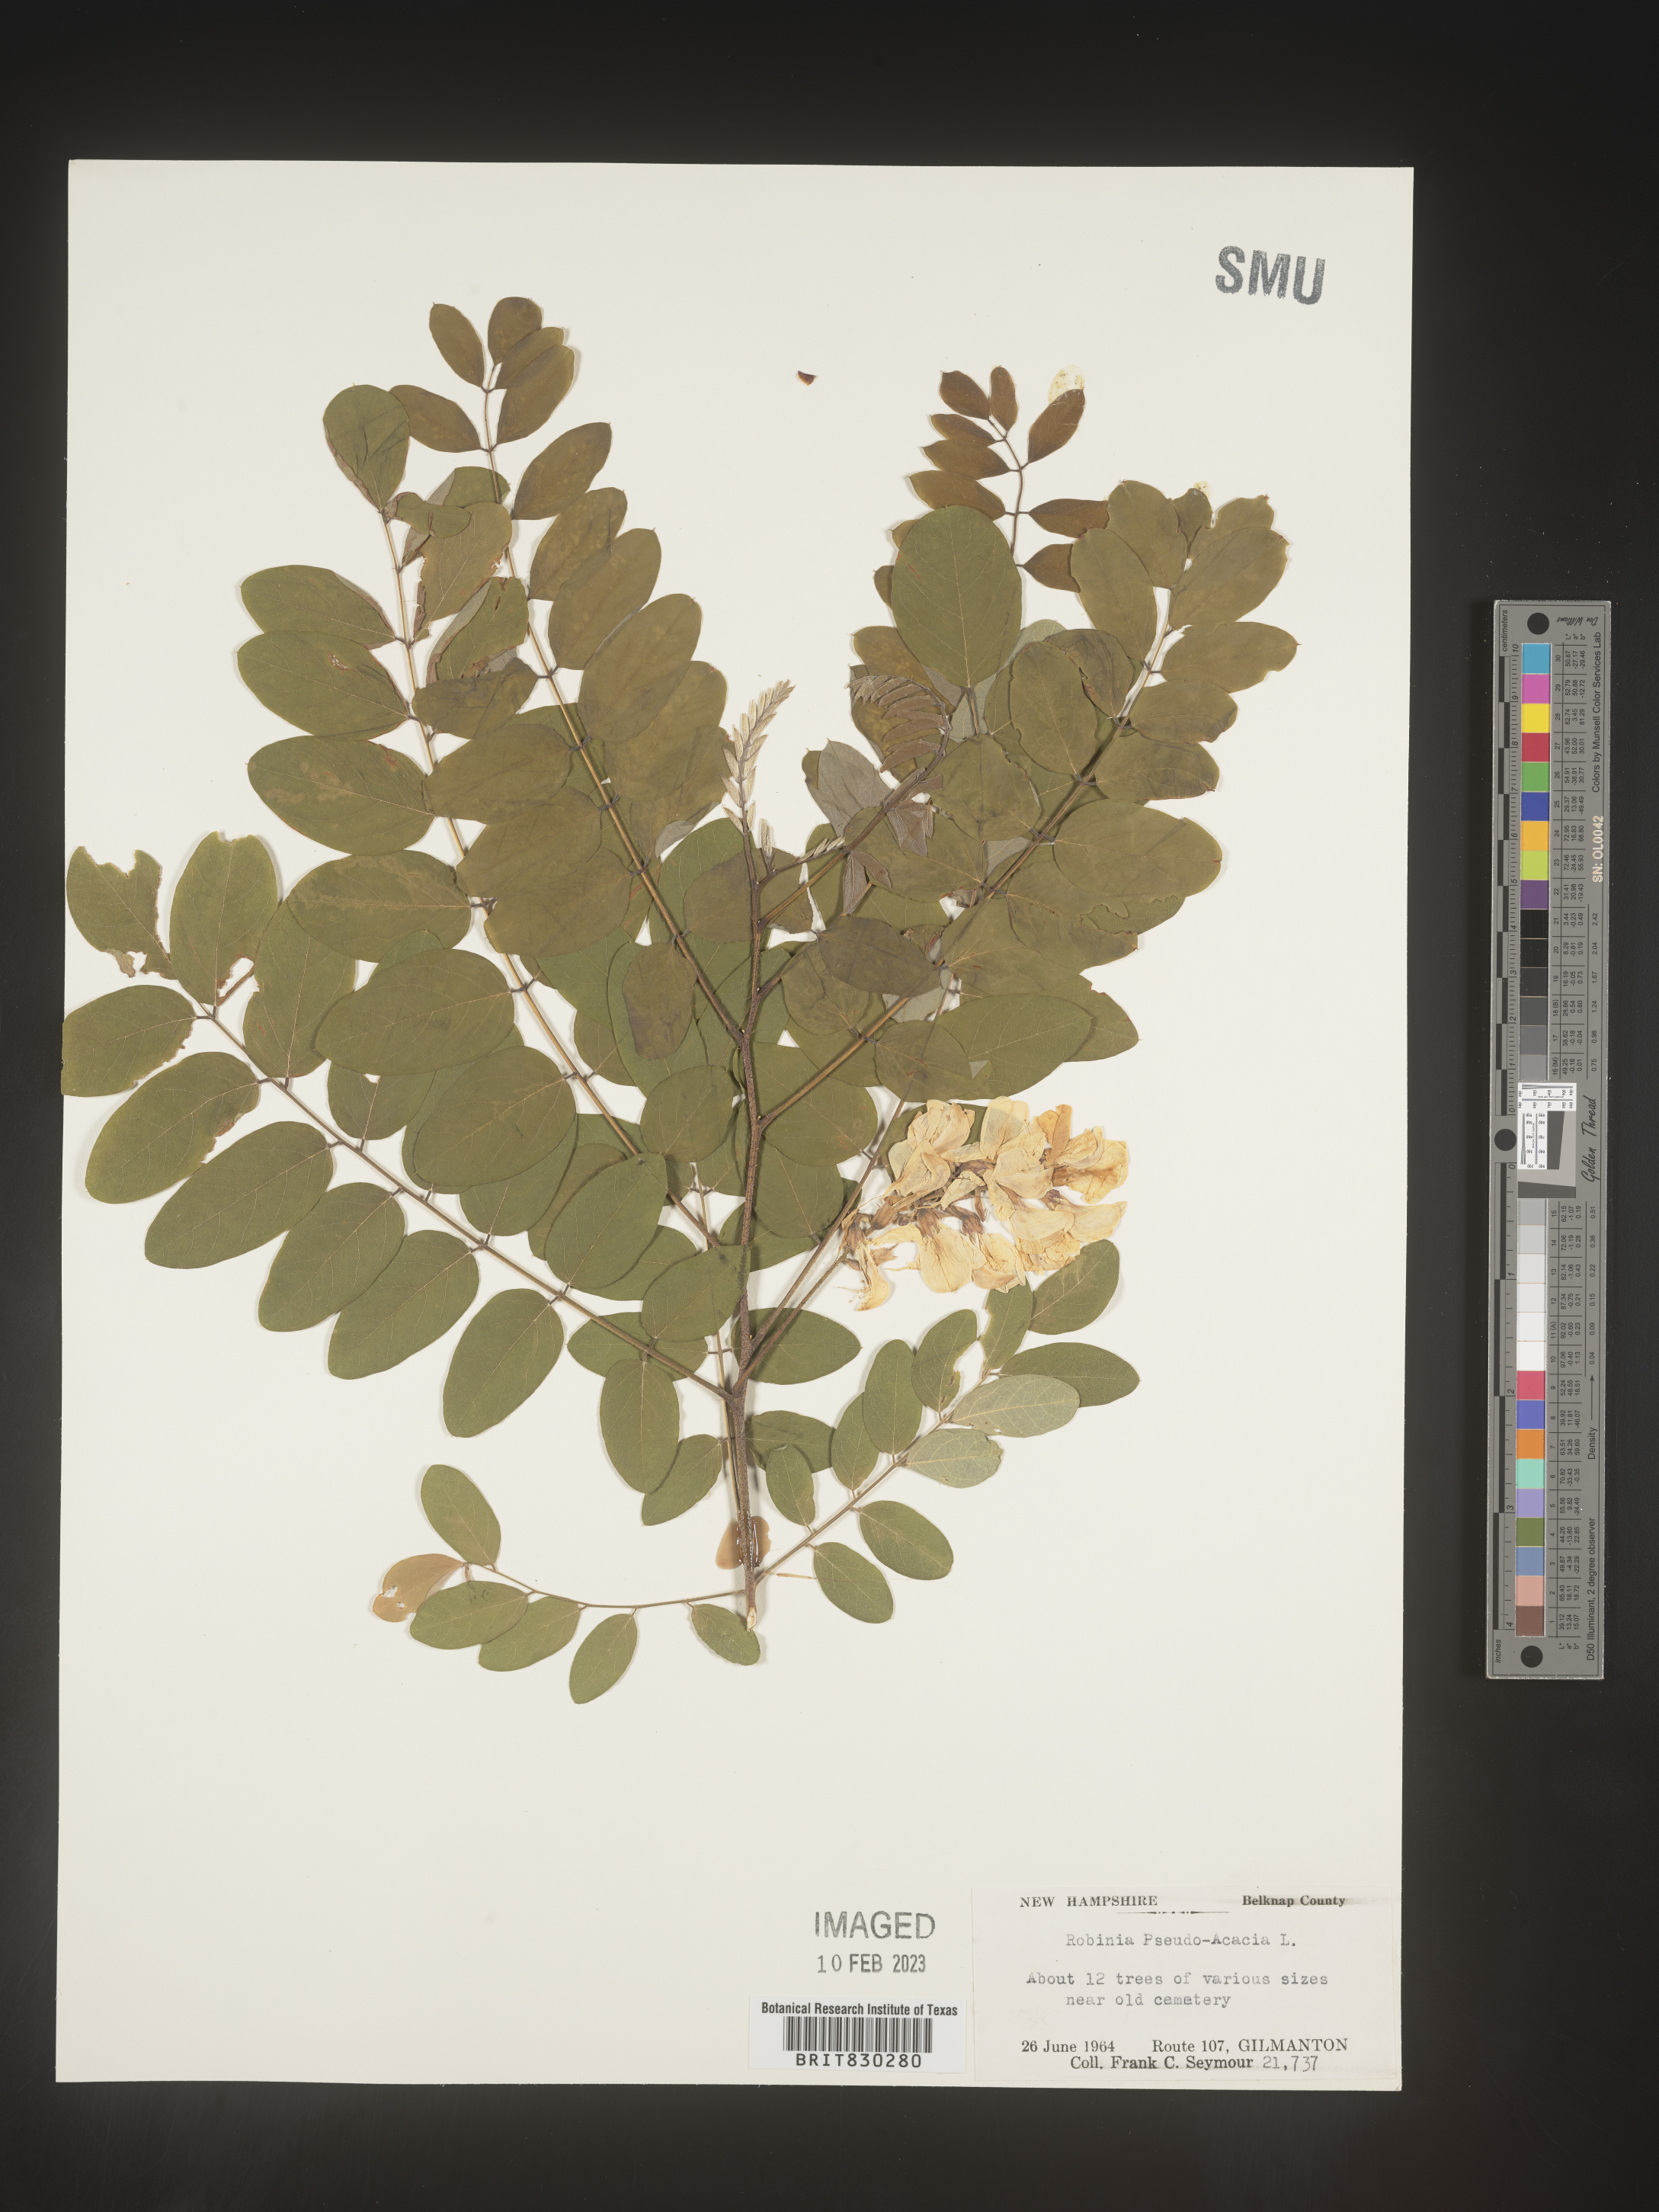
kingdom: Plantae
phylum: Tracheophyta
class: Magnoliopsida
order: Fabales
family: Fabaceae
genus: Robinia
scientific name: Robinia pseudoacacia
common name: Black locust
